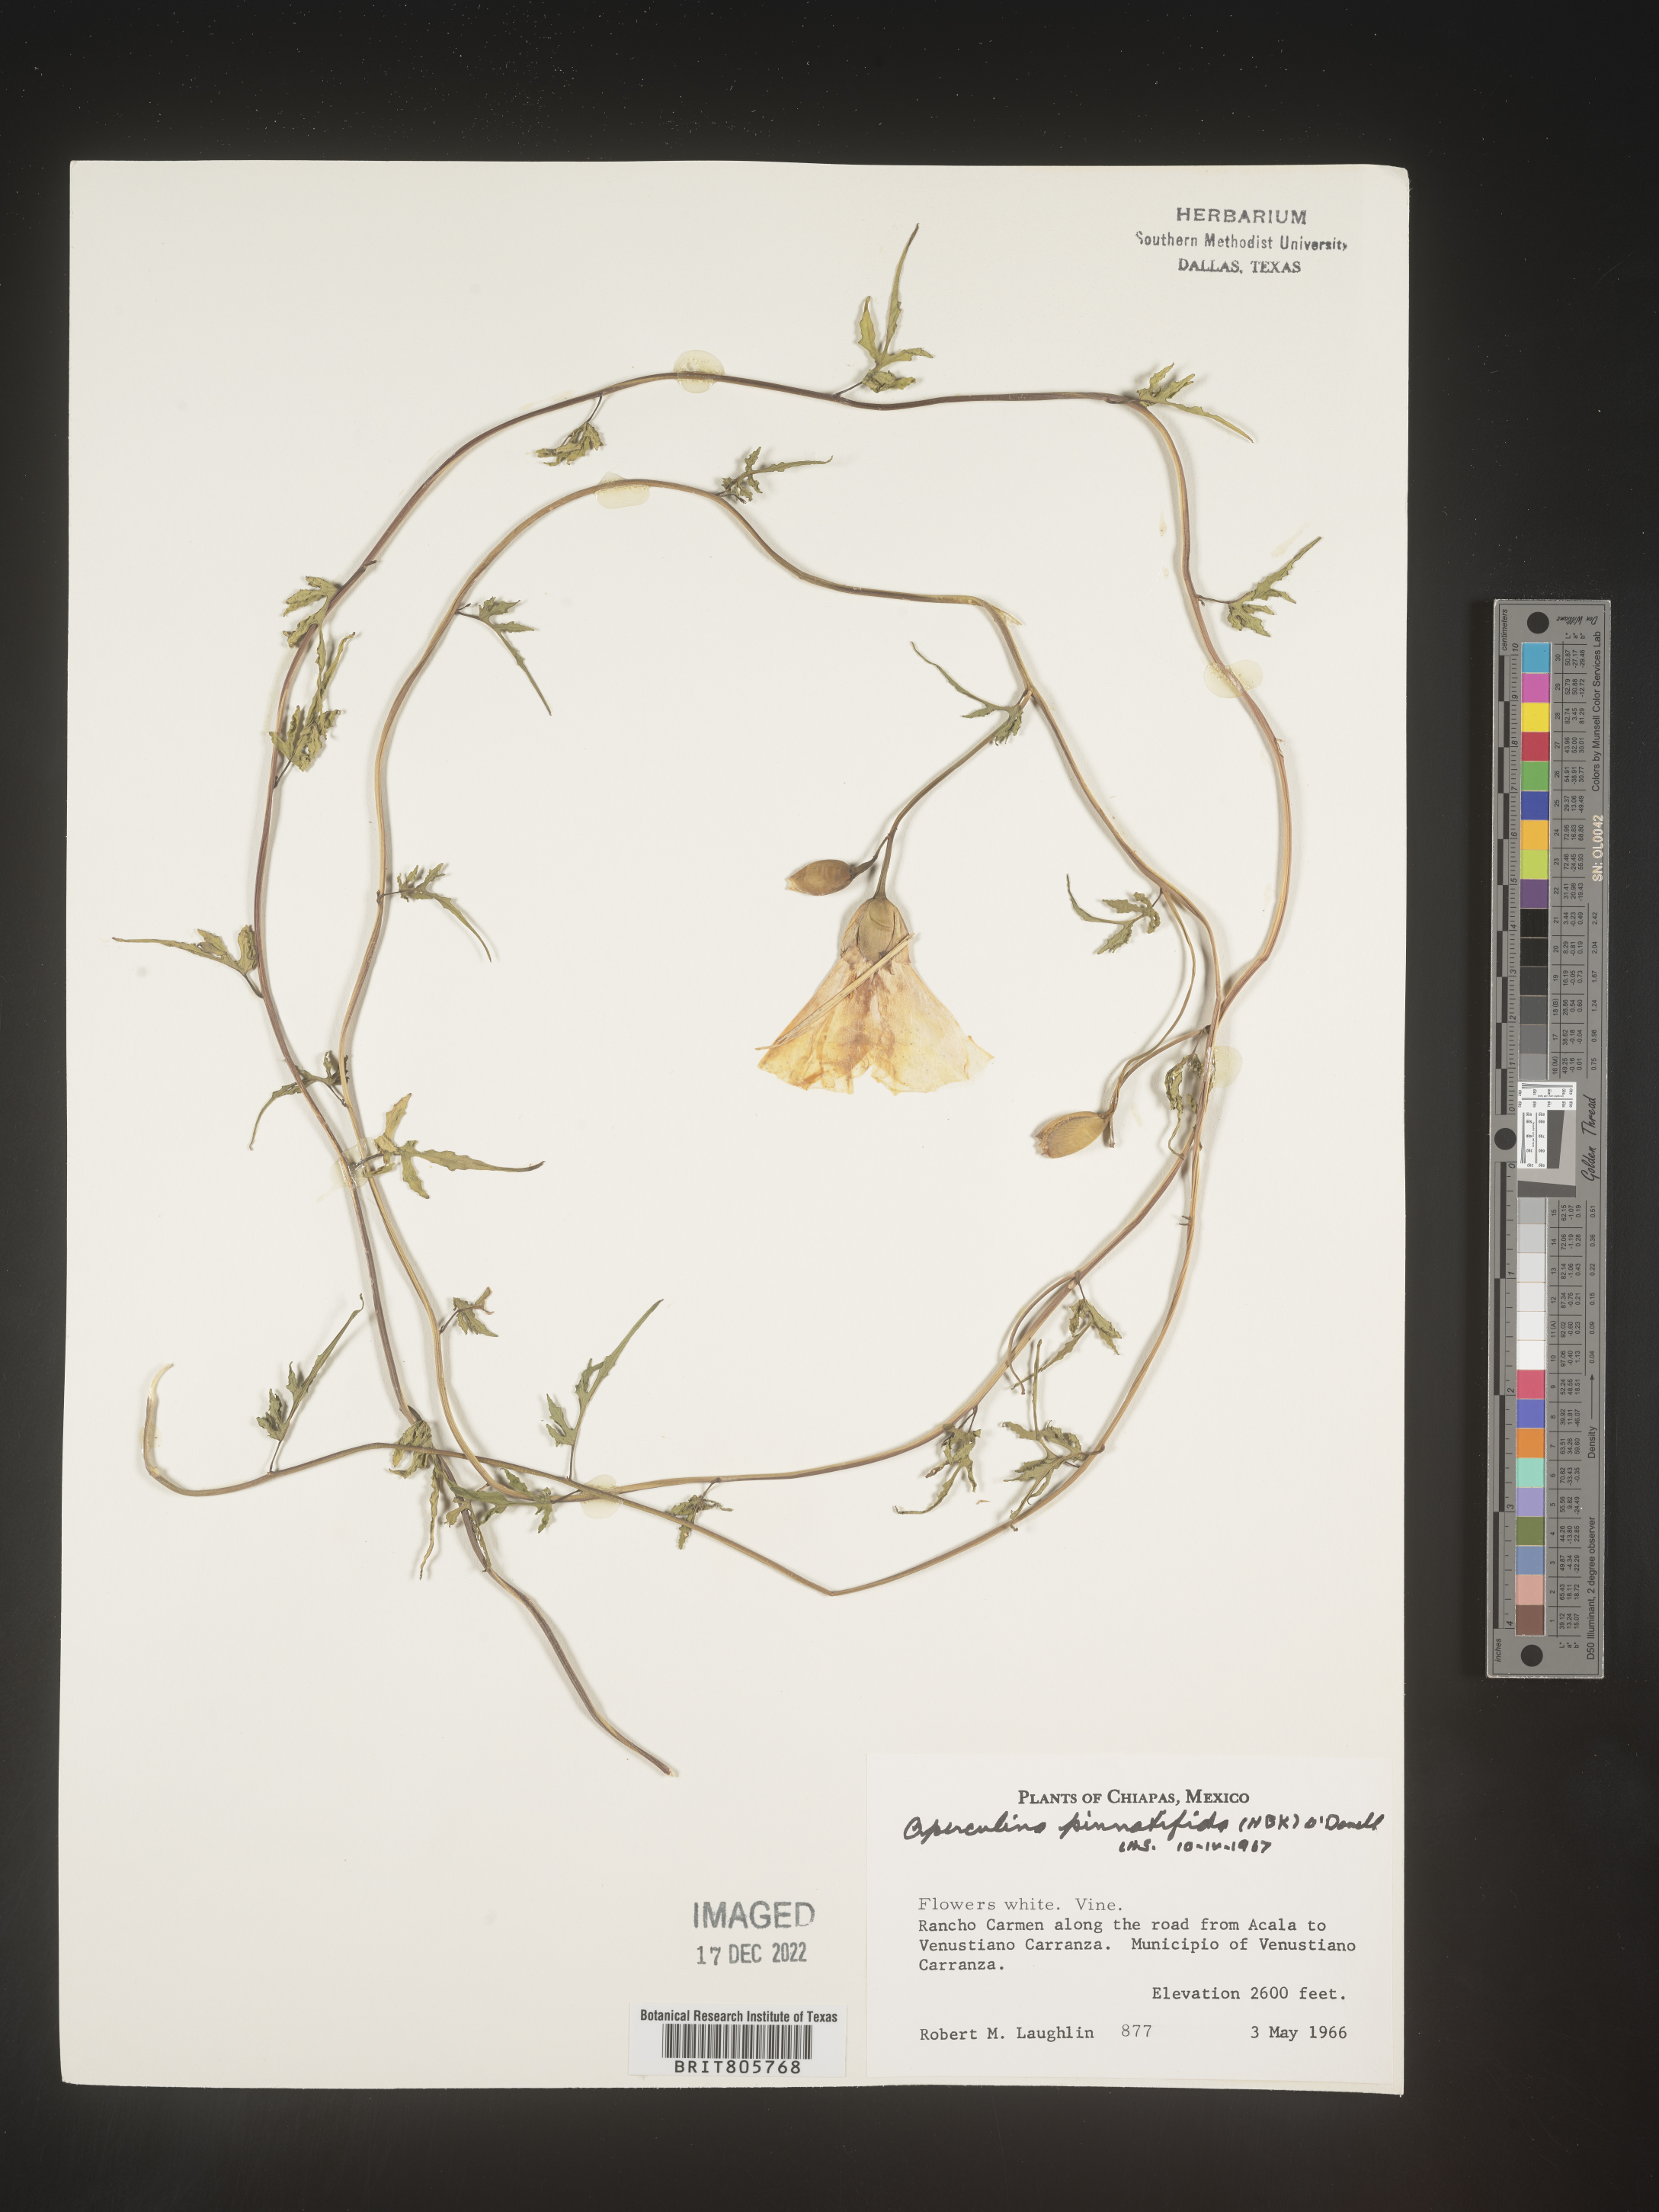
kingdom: Plantae
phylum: Tracheophyta
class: Magnoliopsida
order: Solanales
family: Convolvulaceae
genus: Operculina
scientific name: Operculina
